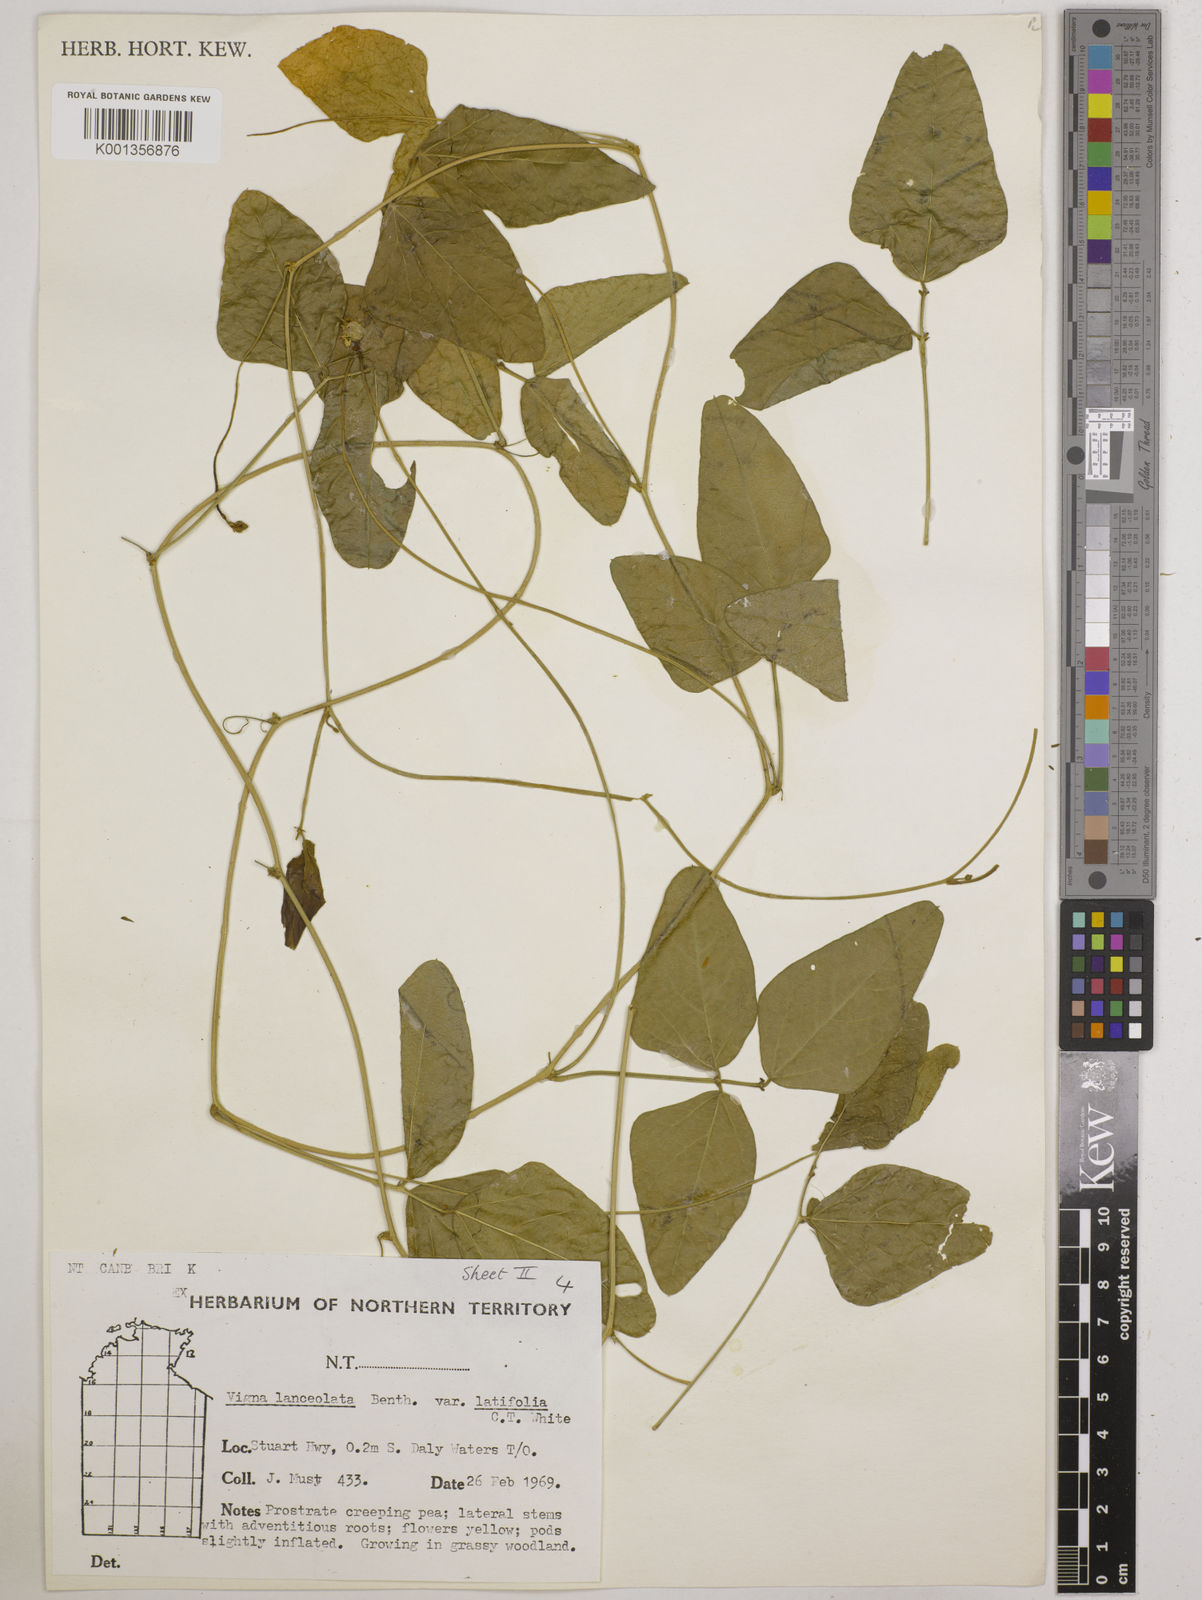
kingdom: Plantae
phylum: Tracheophyta
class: Magnoliopsida
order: Fabales
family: Fabaceae
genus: Vigna
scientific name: Vigna lanceolata
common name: Maloga-bean
